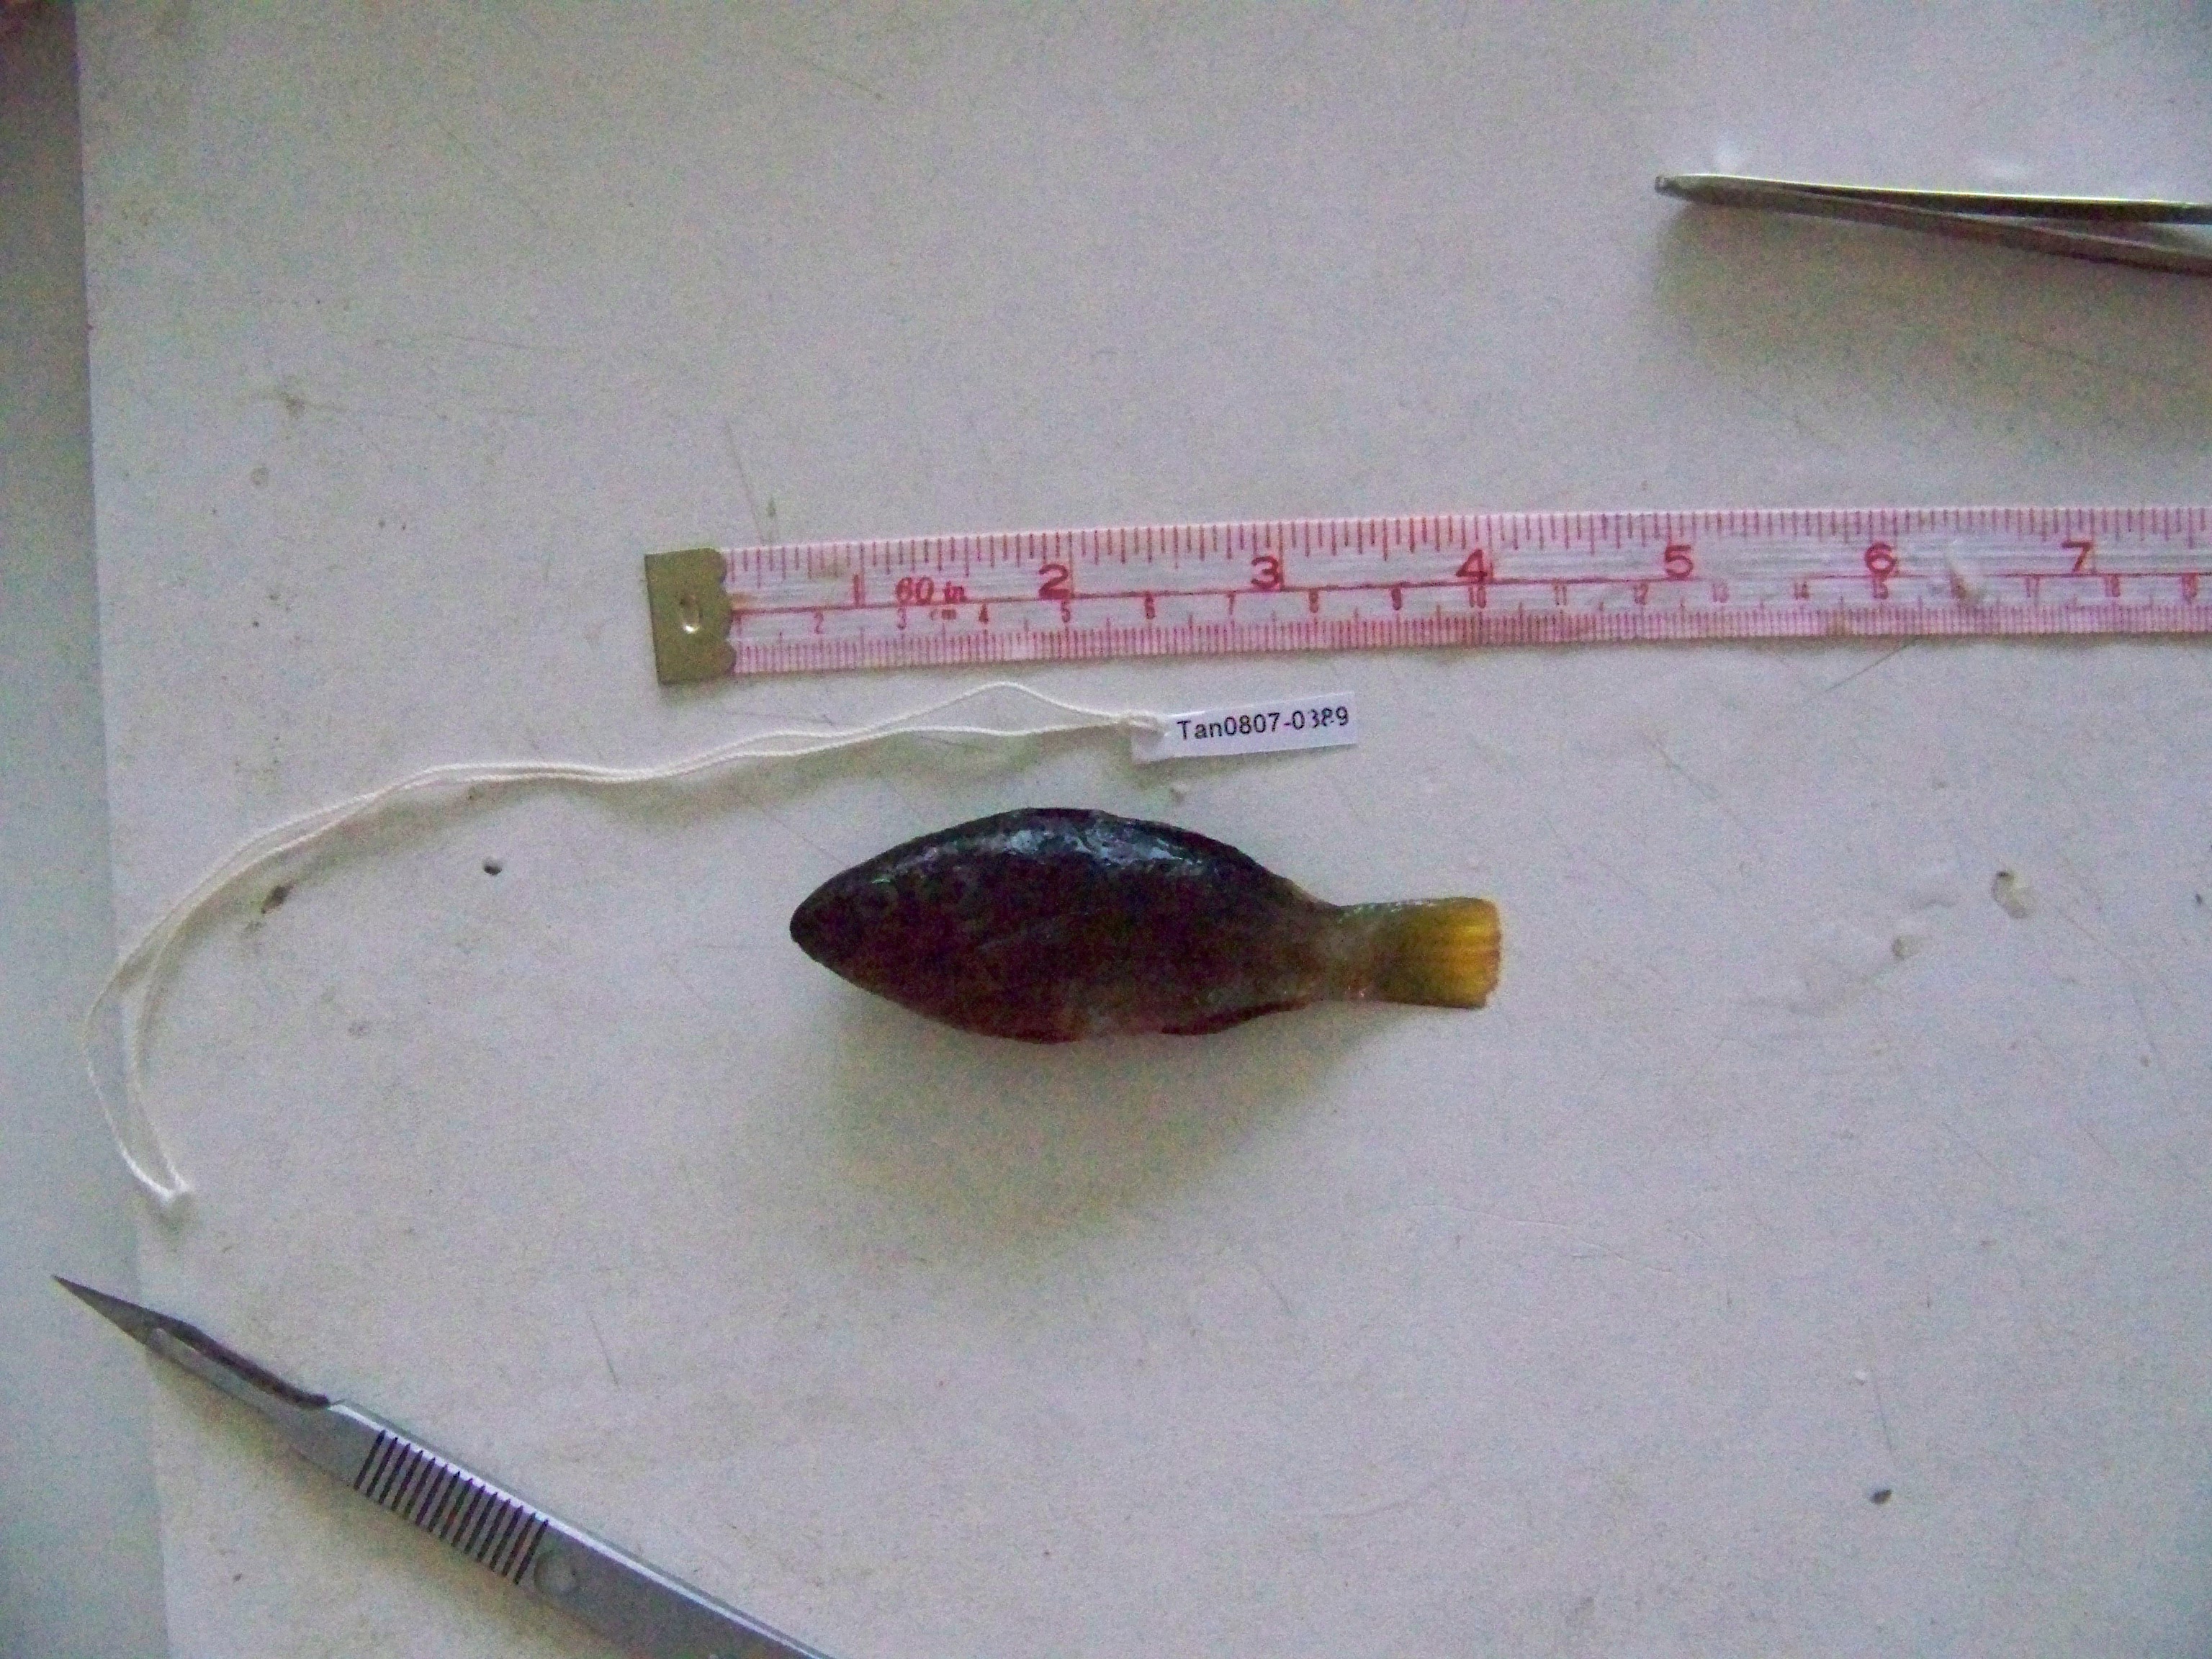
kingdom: Animalia
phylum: Chordata
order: Perciformes
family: Scaridae
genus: Scarus
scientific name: Scarus tricolor
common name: Tricolour parrotfish
